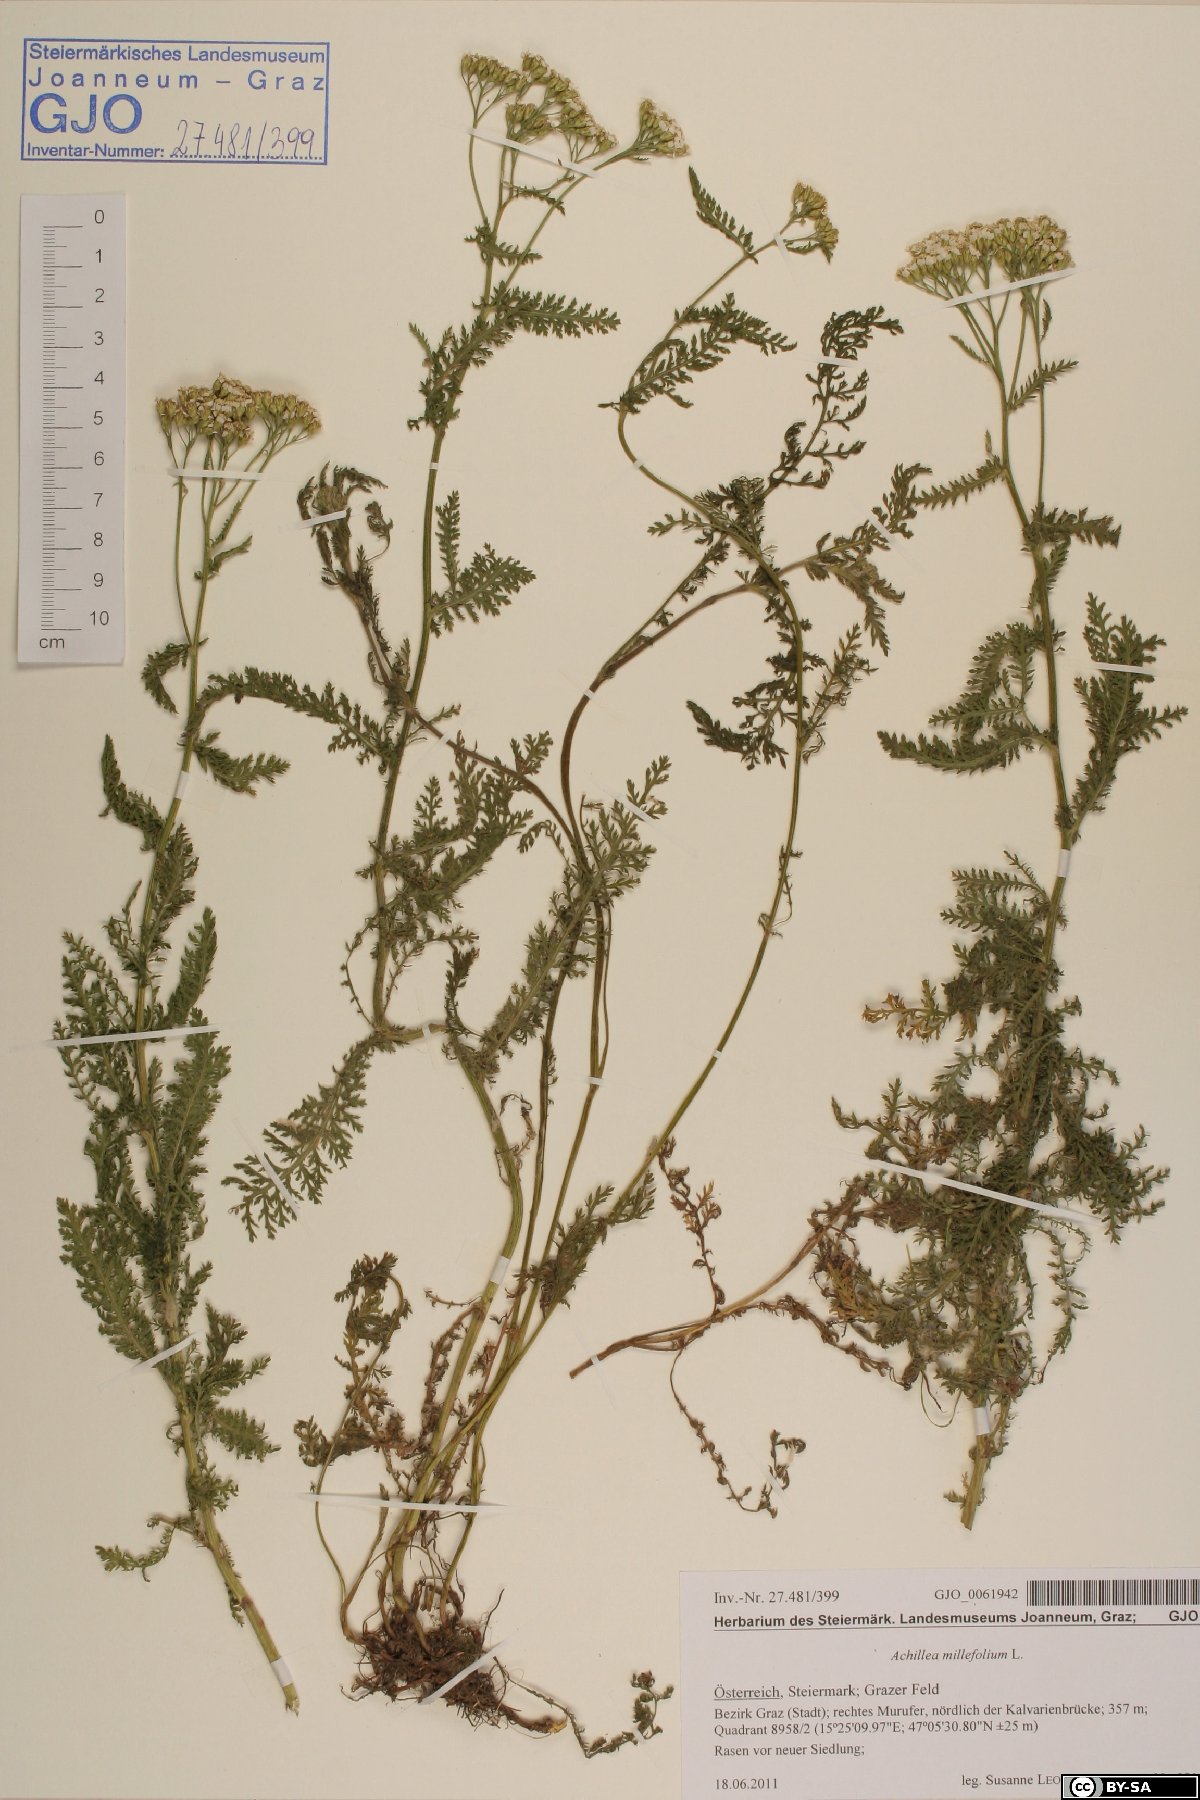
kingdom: Plantae
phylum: Tracheophyta
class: Magnoliopsida
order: Asterales
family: Asteraceae
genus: Achillea
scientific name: Achillea distans
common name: Tall yarrow
